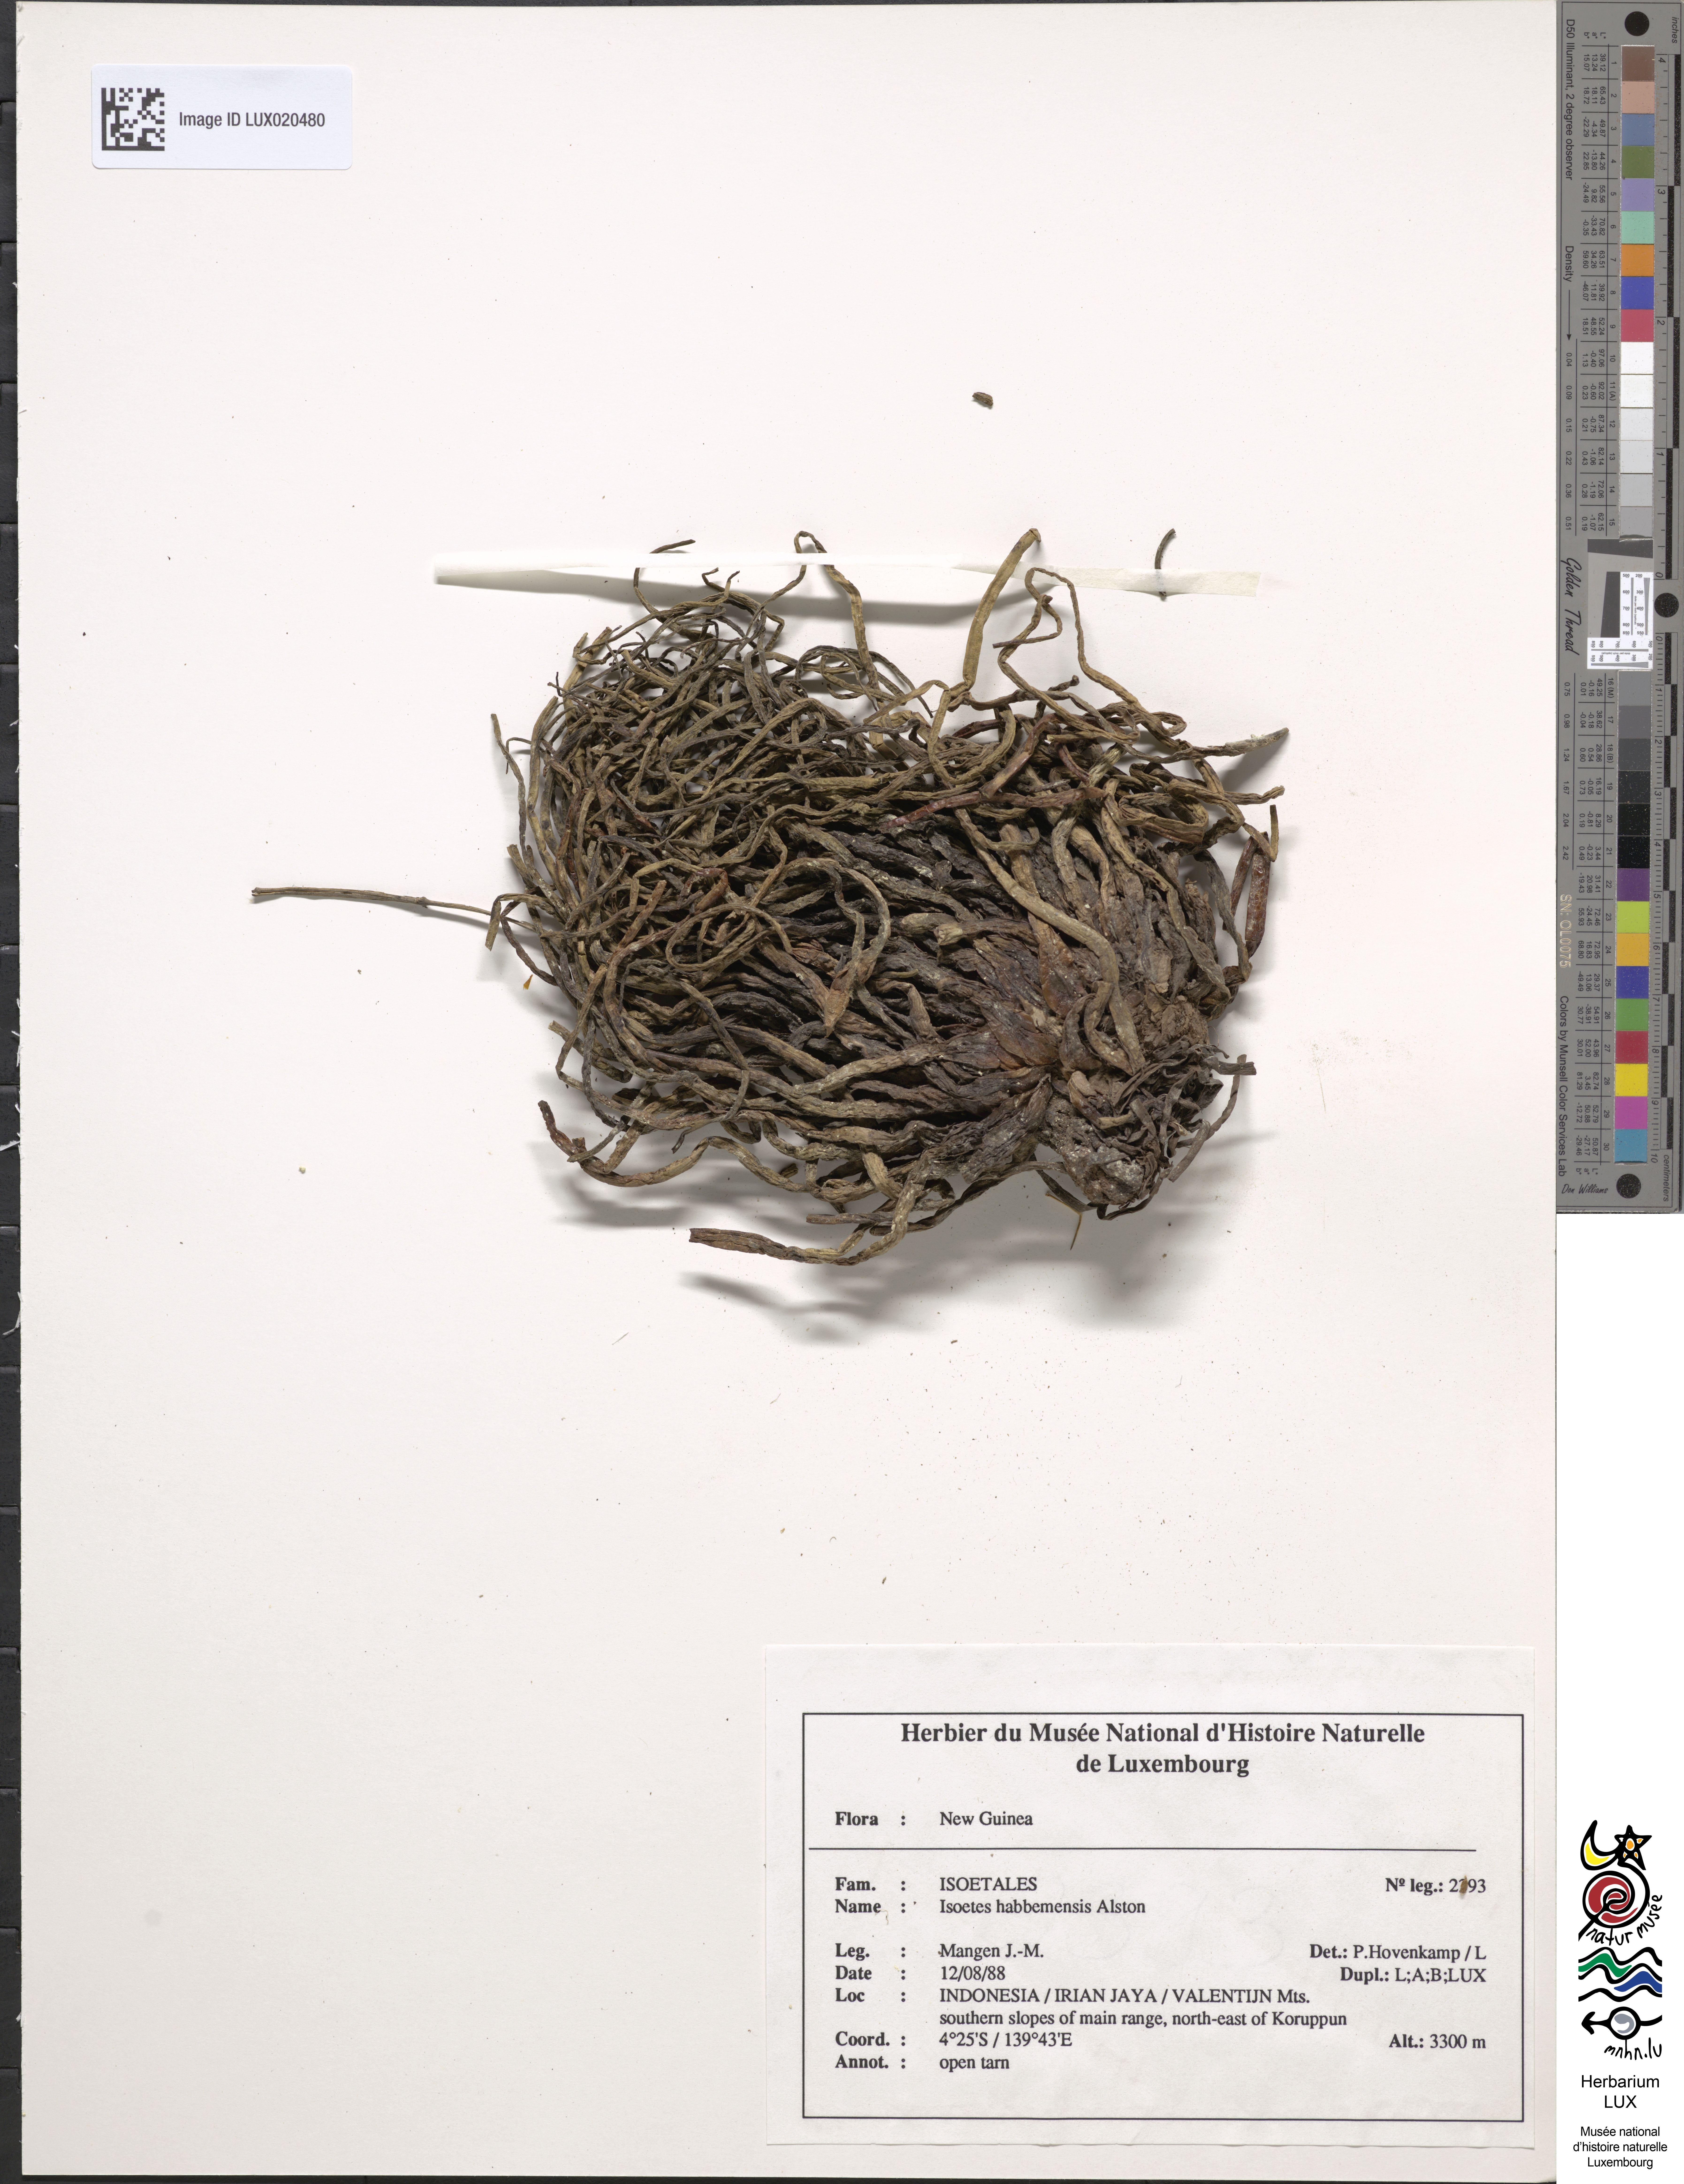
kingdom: Plantae
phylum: Tracheophyta
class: Lycopodiopsida
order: Isoetales
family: Isoetaceae
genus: Isoetes
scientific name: Isoetes habbemensis
